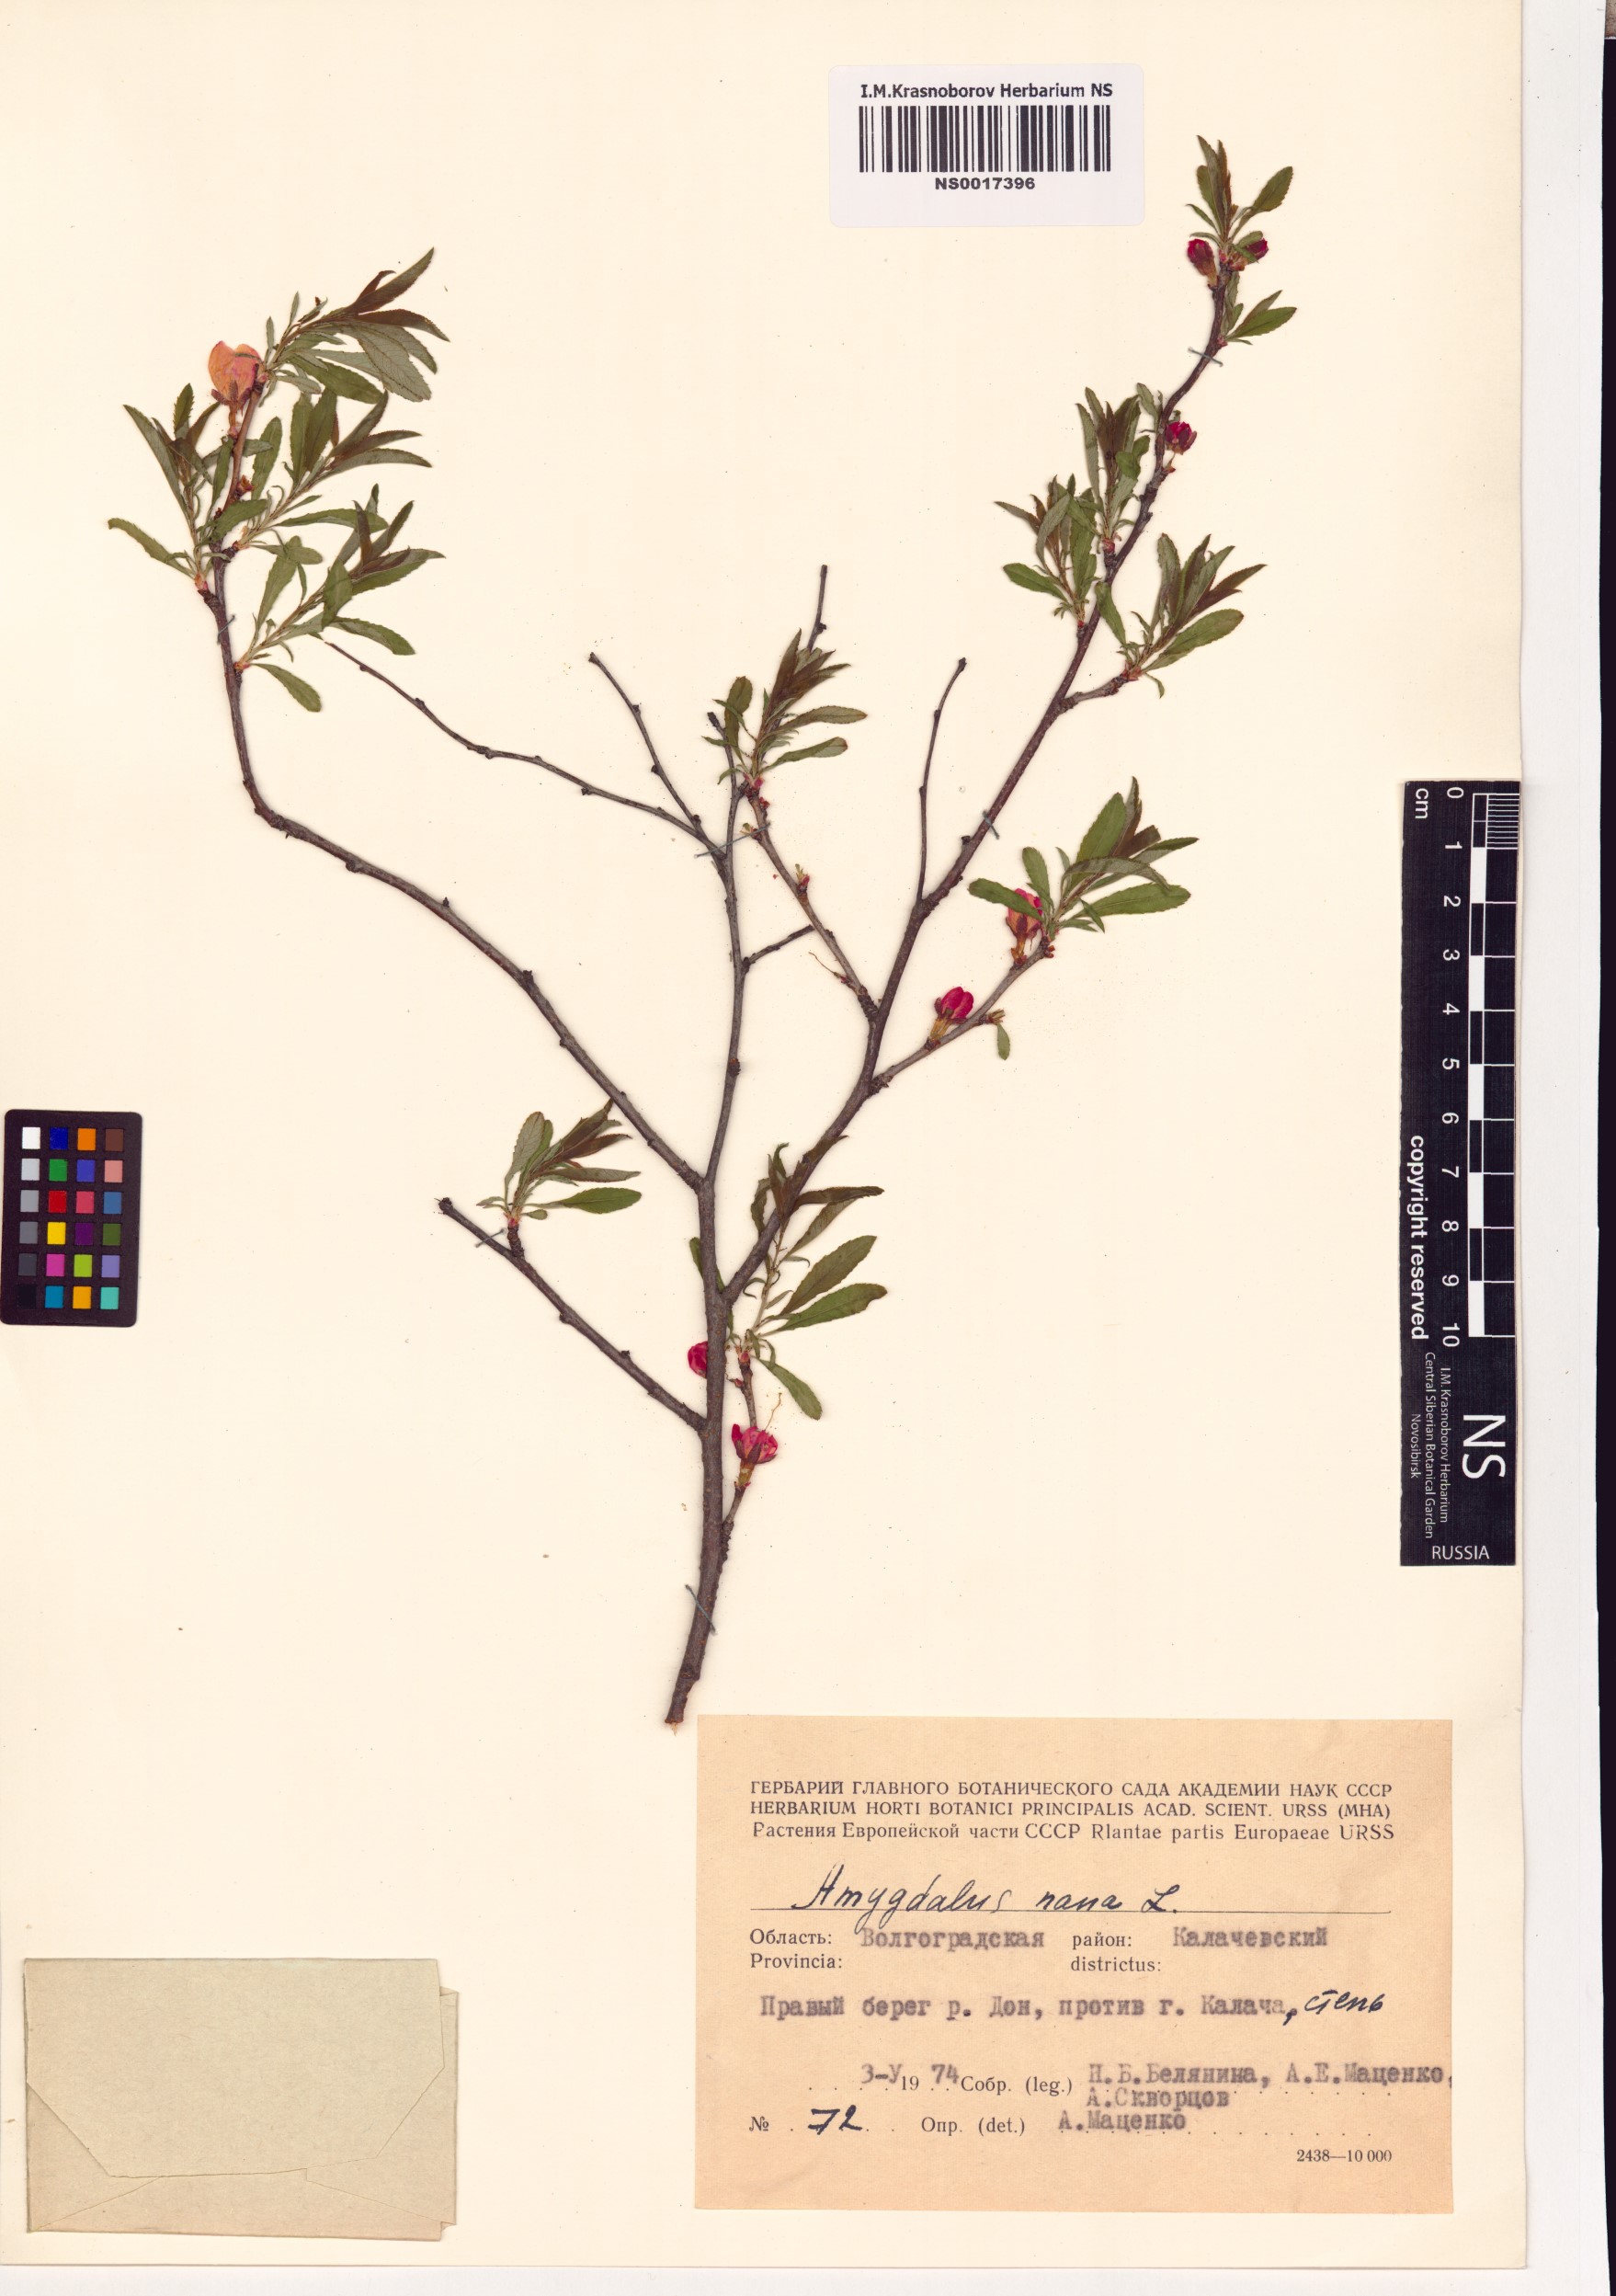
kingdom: Plantae
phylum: Tracheophyta
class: Magnoliopsida
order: Rosales
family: Rosaceae
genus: Prunus
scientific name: Prunus tenella
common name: Dwarf russian almond
